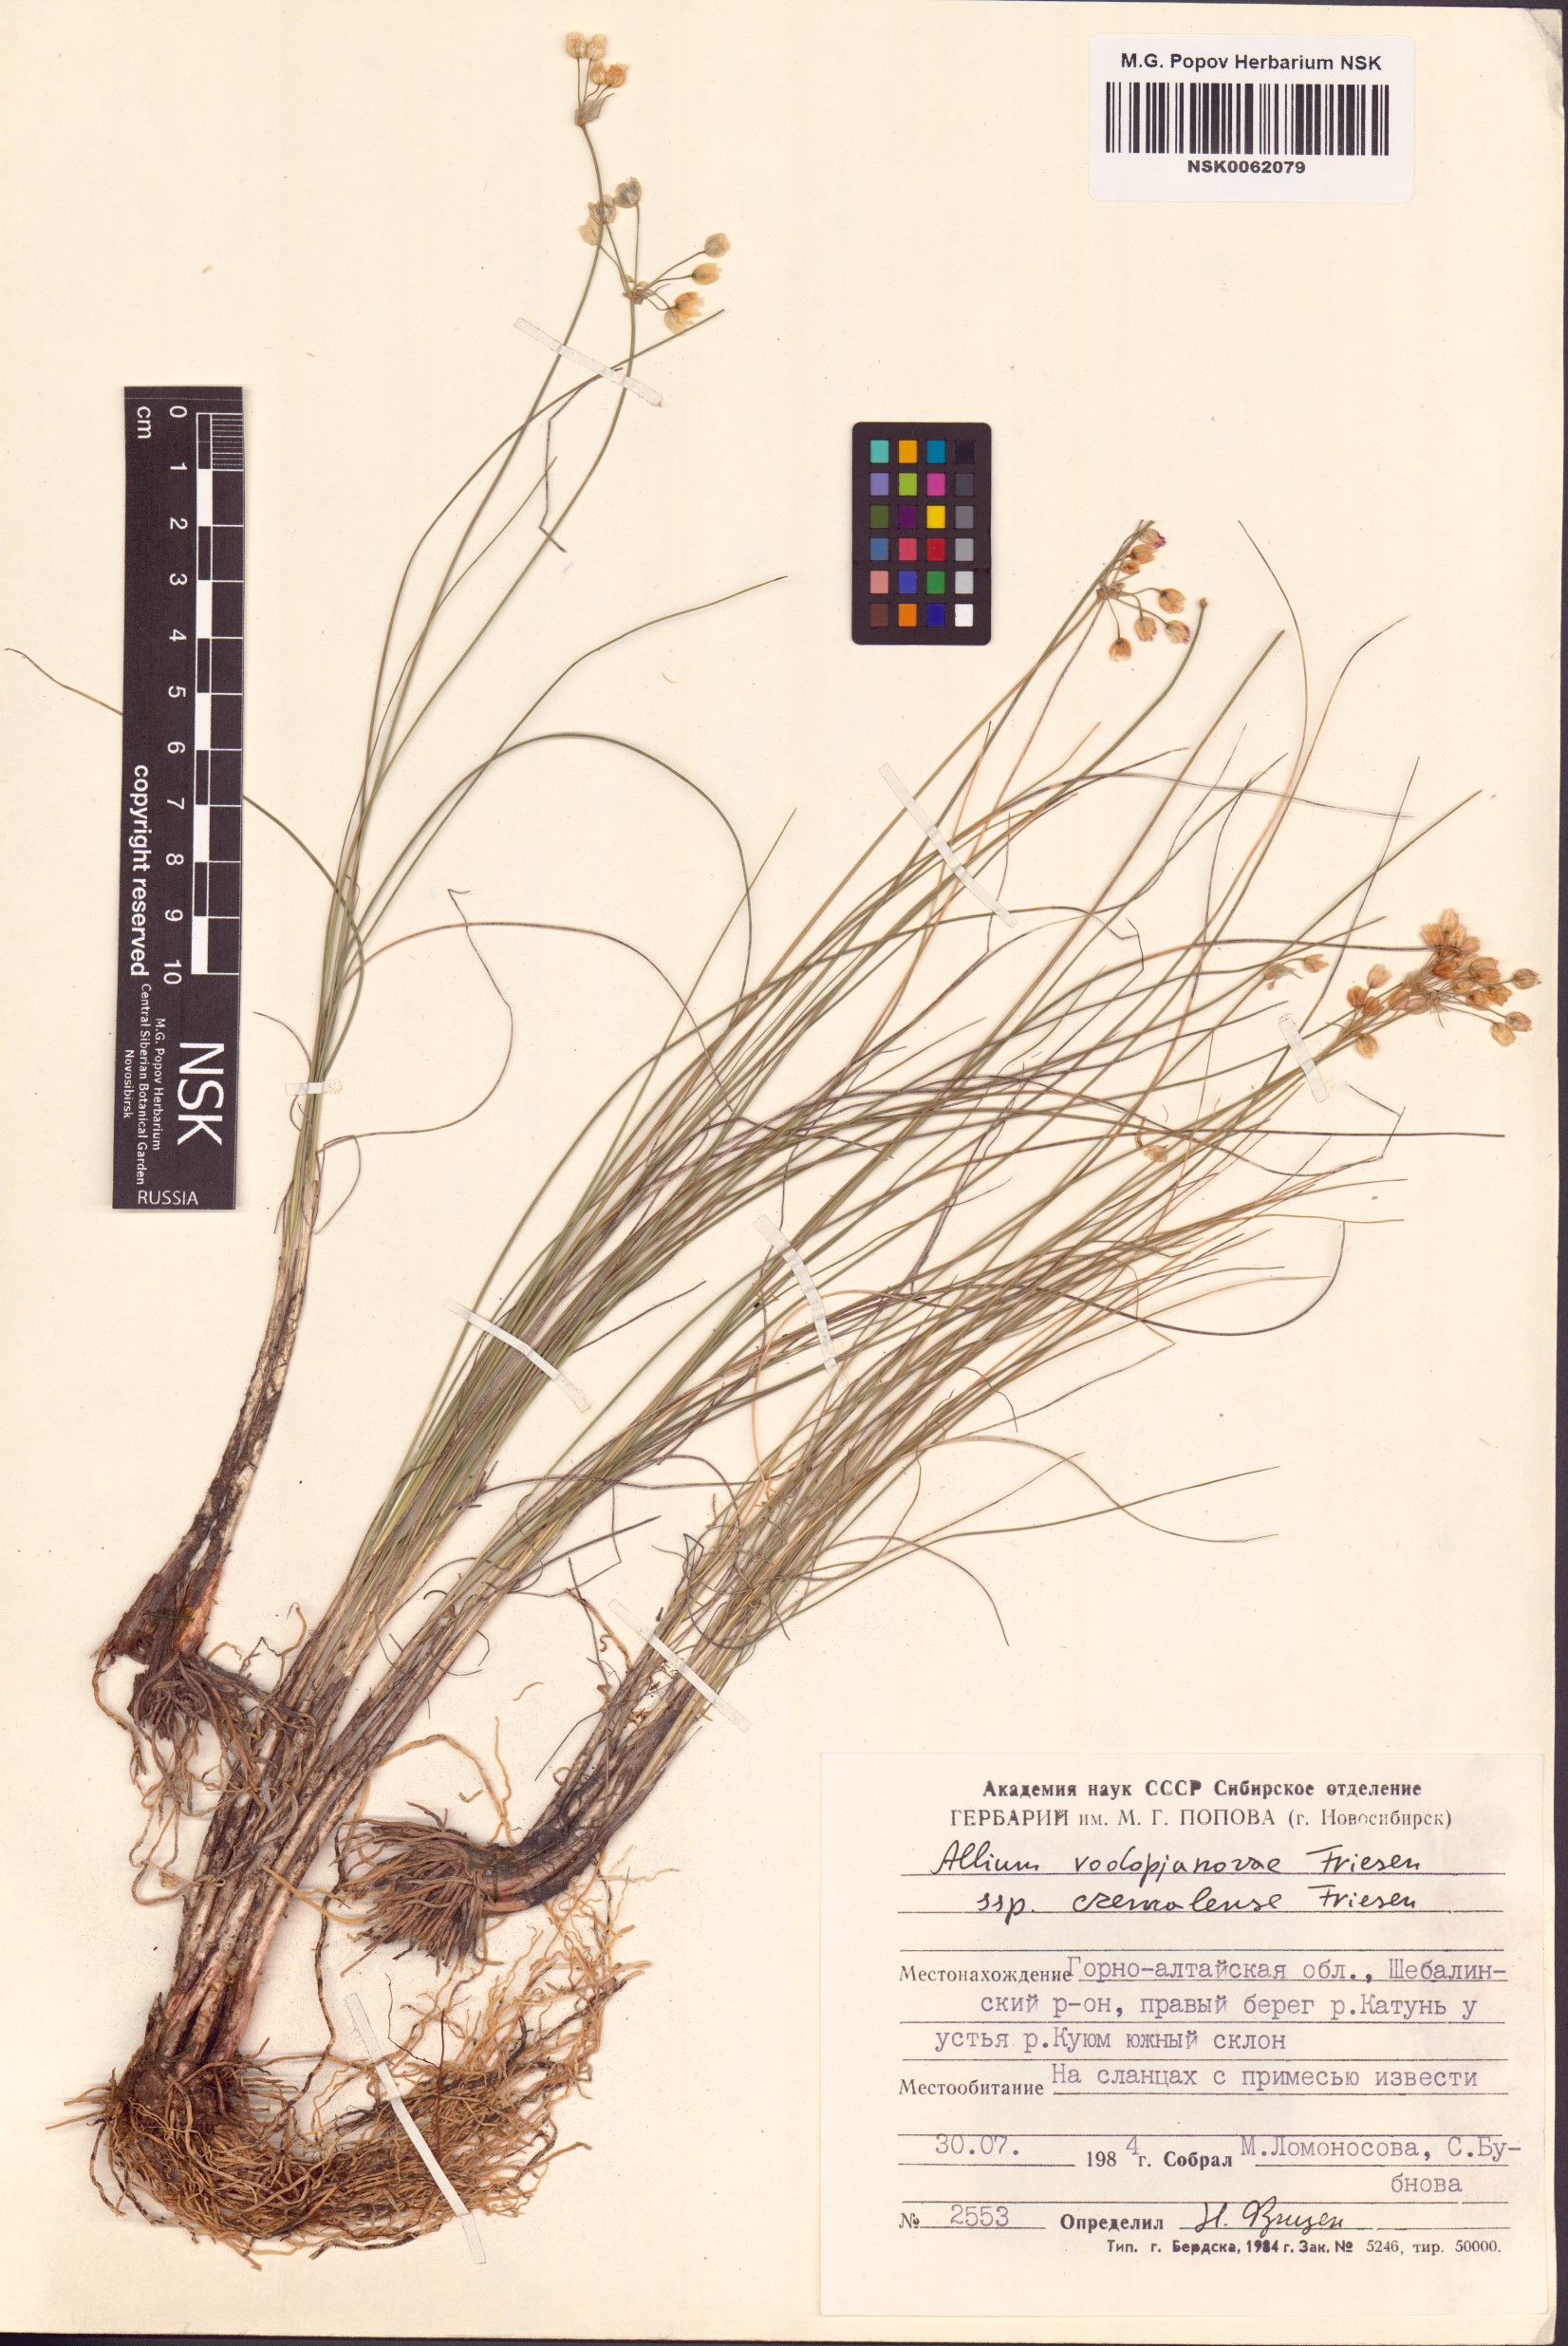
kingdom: Plantae
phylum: Tracheophyta
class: Liliopsida
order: Asparagales
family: Amaryllidaceae
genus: Allium
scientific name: Allium vodopjanovae
